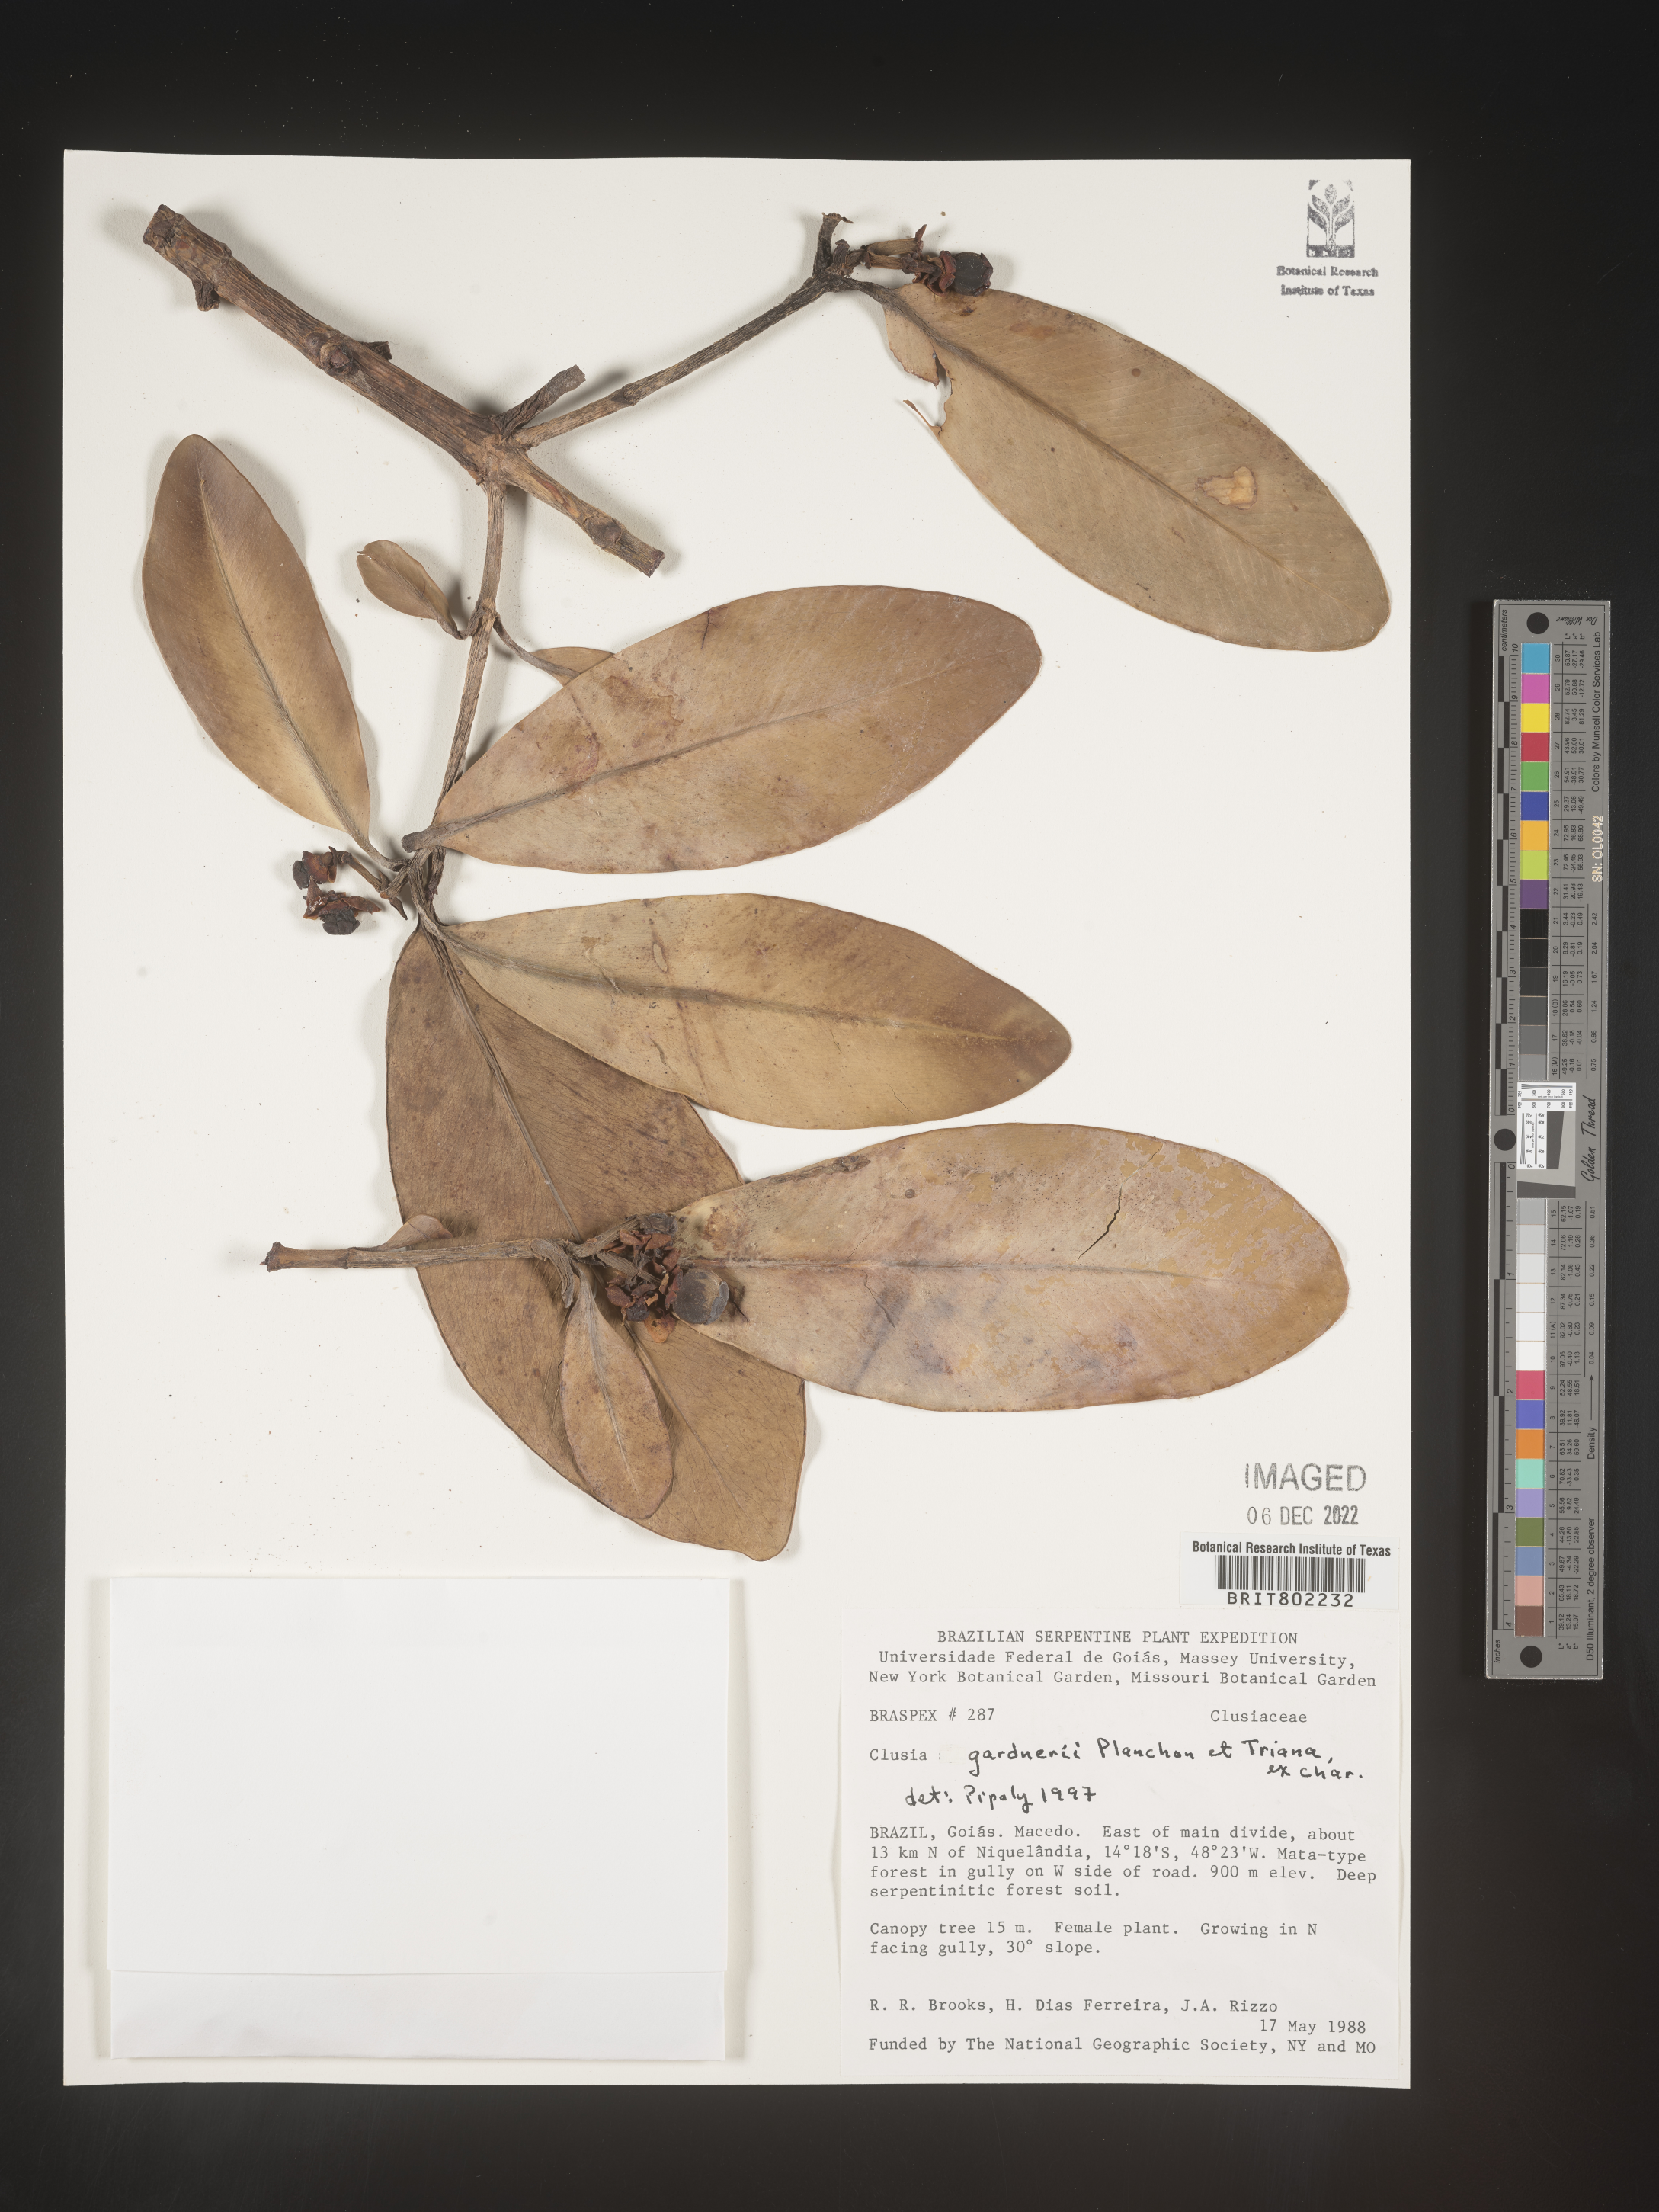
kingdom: Plantae
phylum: Tracheophyta
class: Magnoliopsida
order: Malpighiales
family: Clusiaceae
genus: Clusia
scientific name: Clusia
